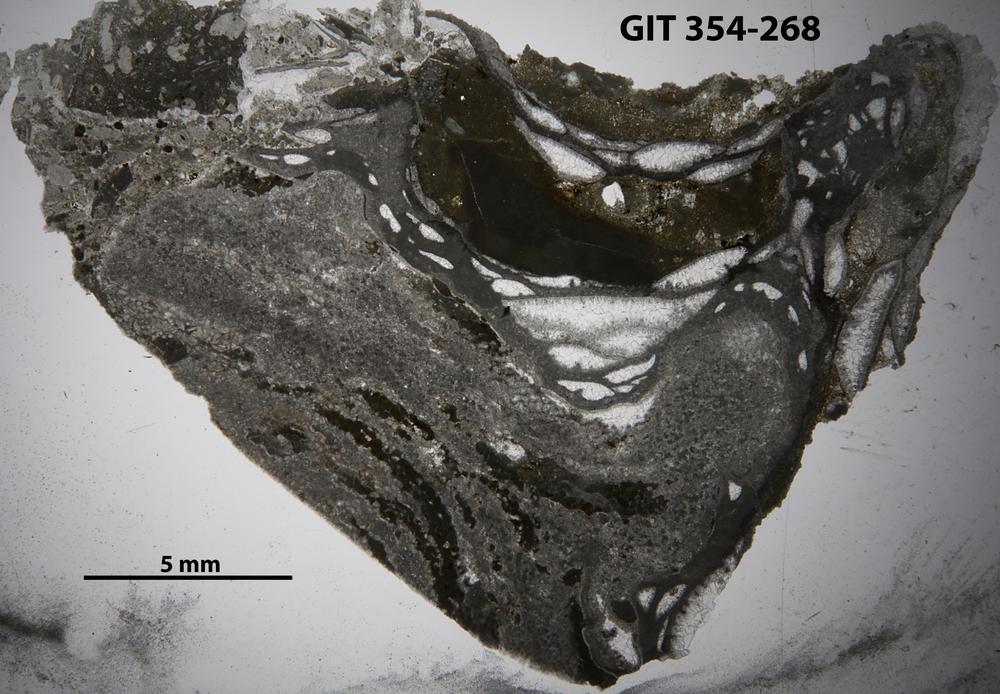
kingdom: Animalia
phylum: Porifera
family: Stylostromatidae
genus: Pachystylostroma
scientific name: Pachystylostroma Stromatopora ungerni
